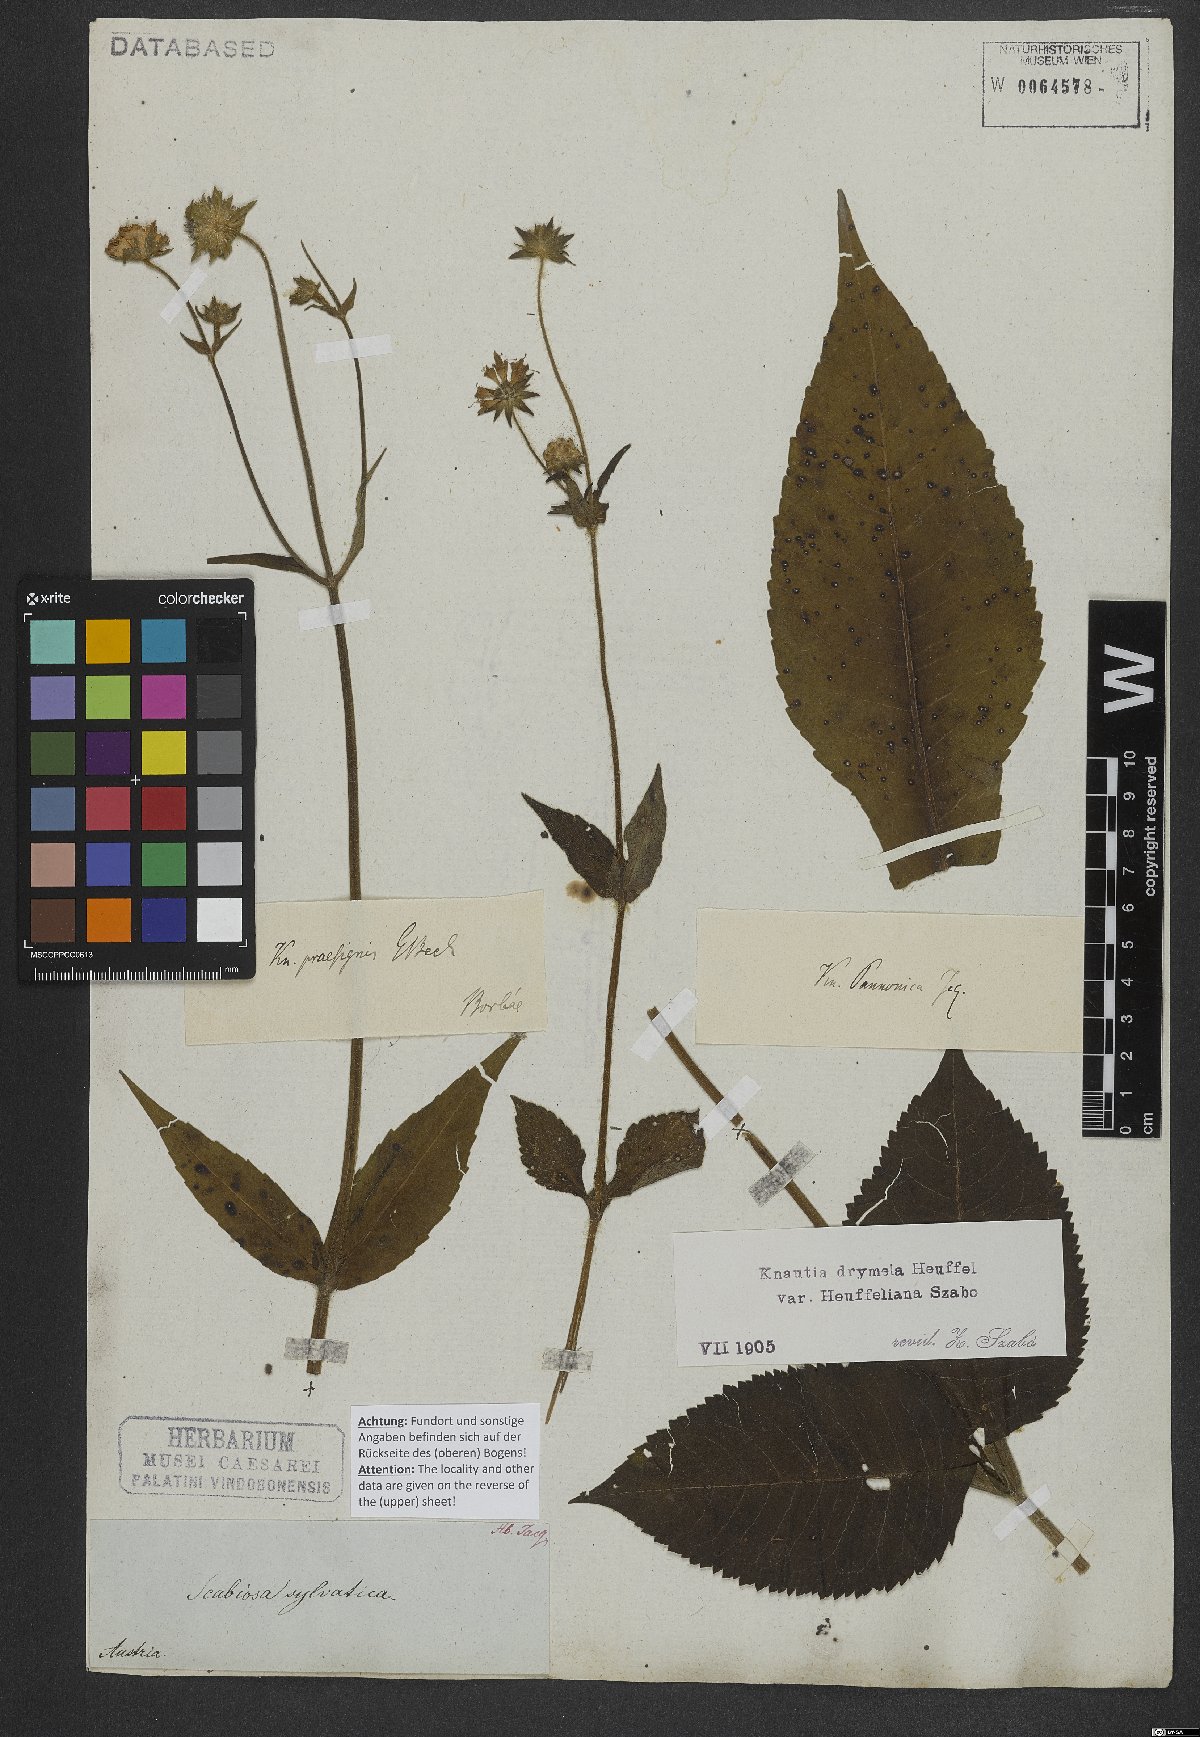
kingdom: Plantae
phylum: Tracheophyta
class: Magnoliopsida
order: Dipsacales
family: Caprifoliaceae
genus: Knautia
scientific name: Knautia drymeia
